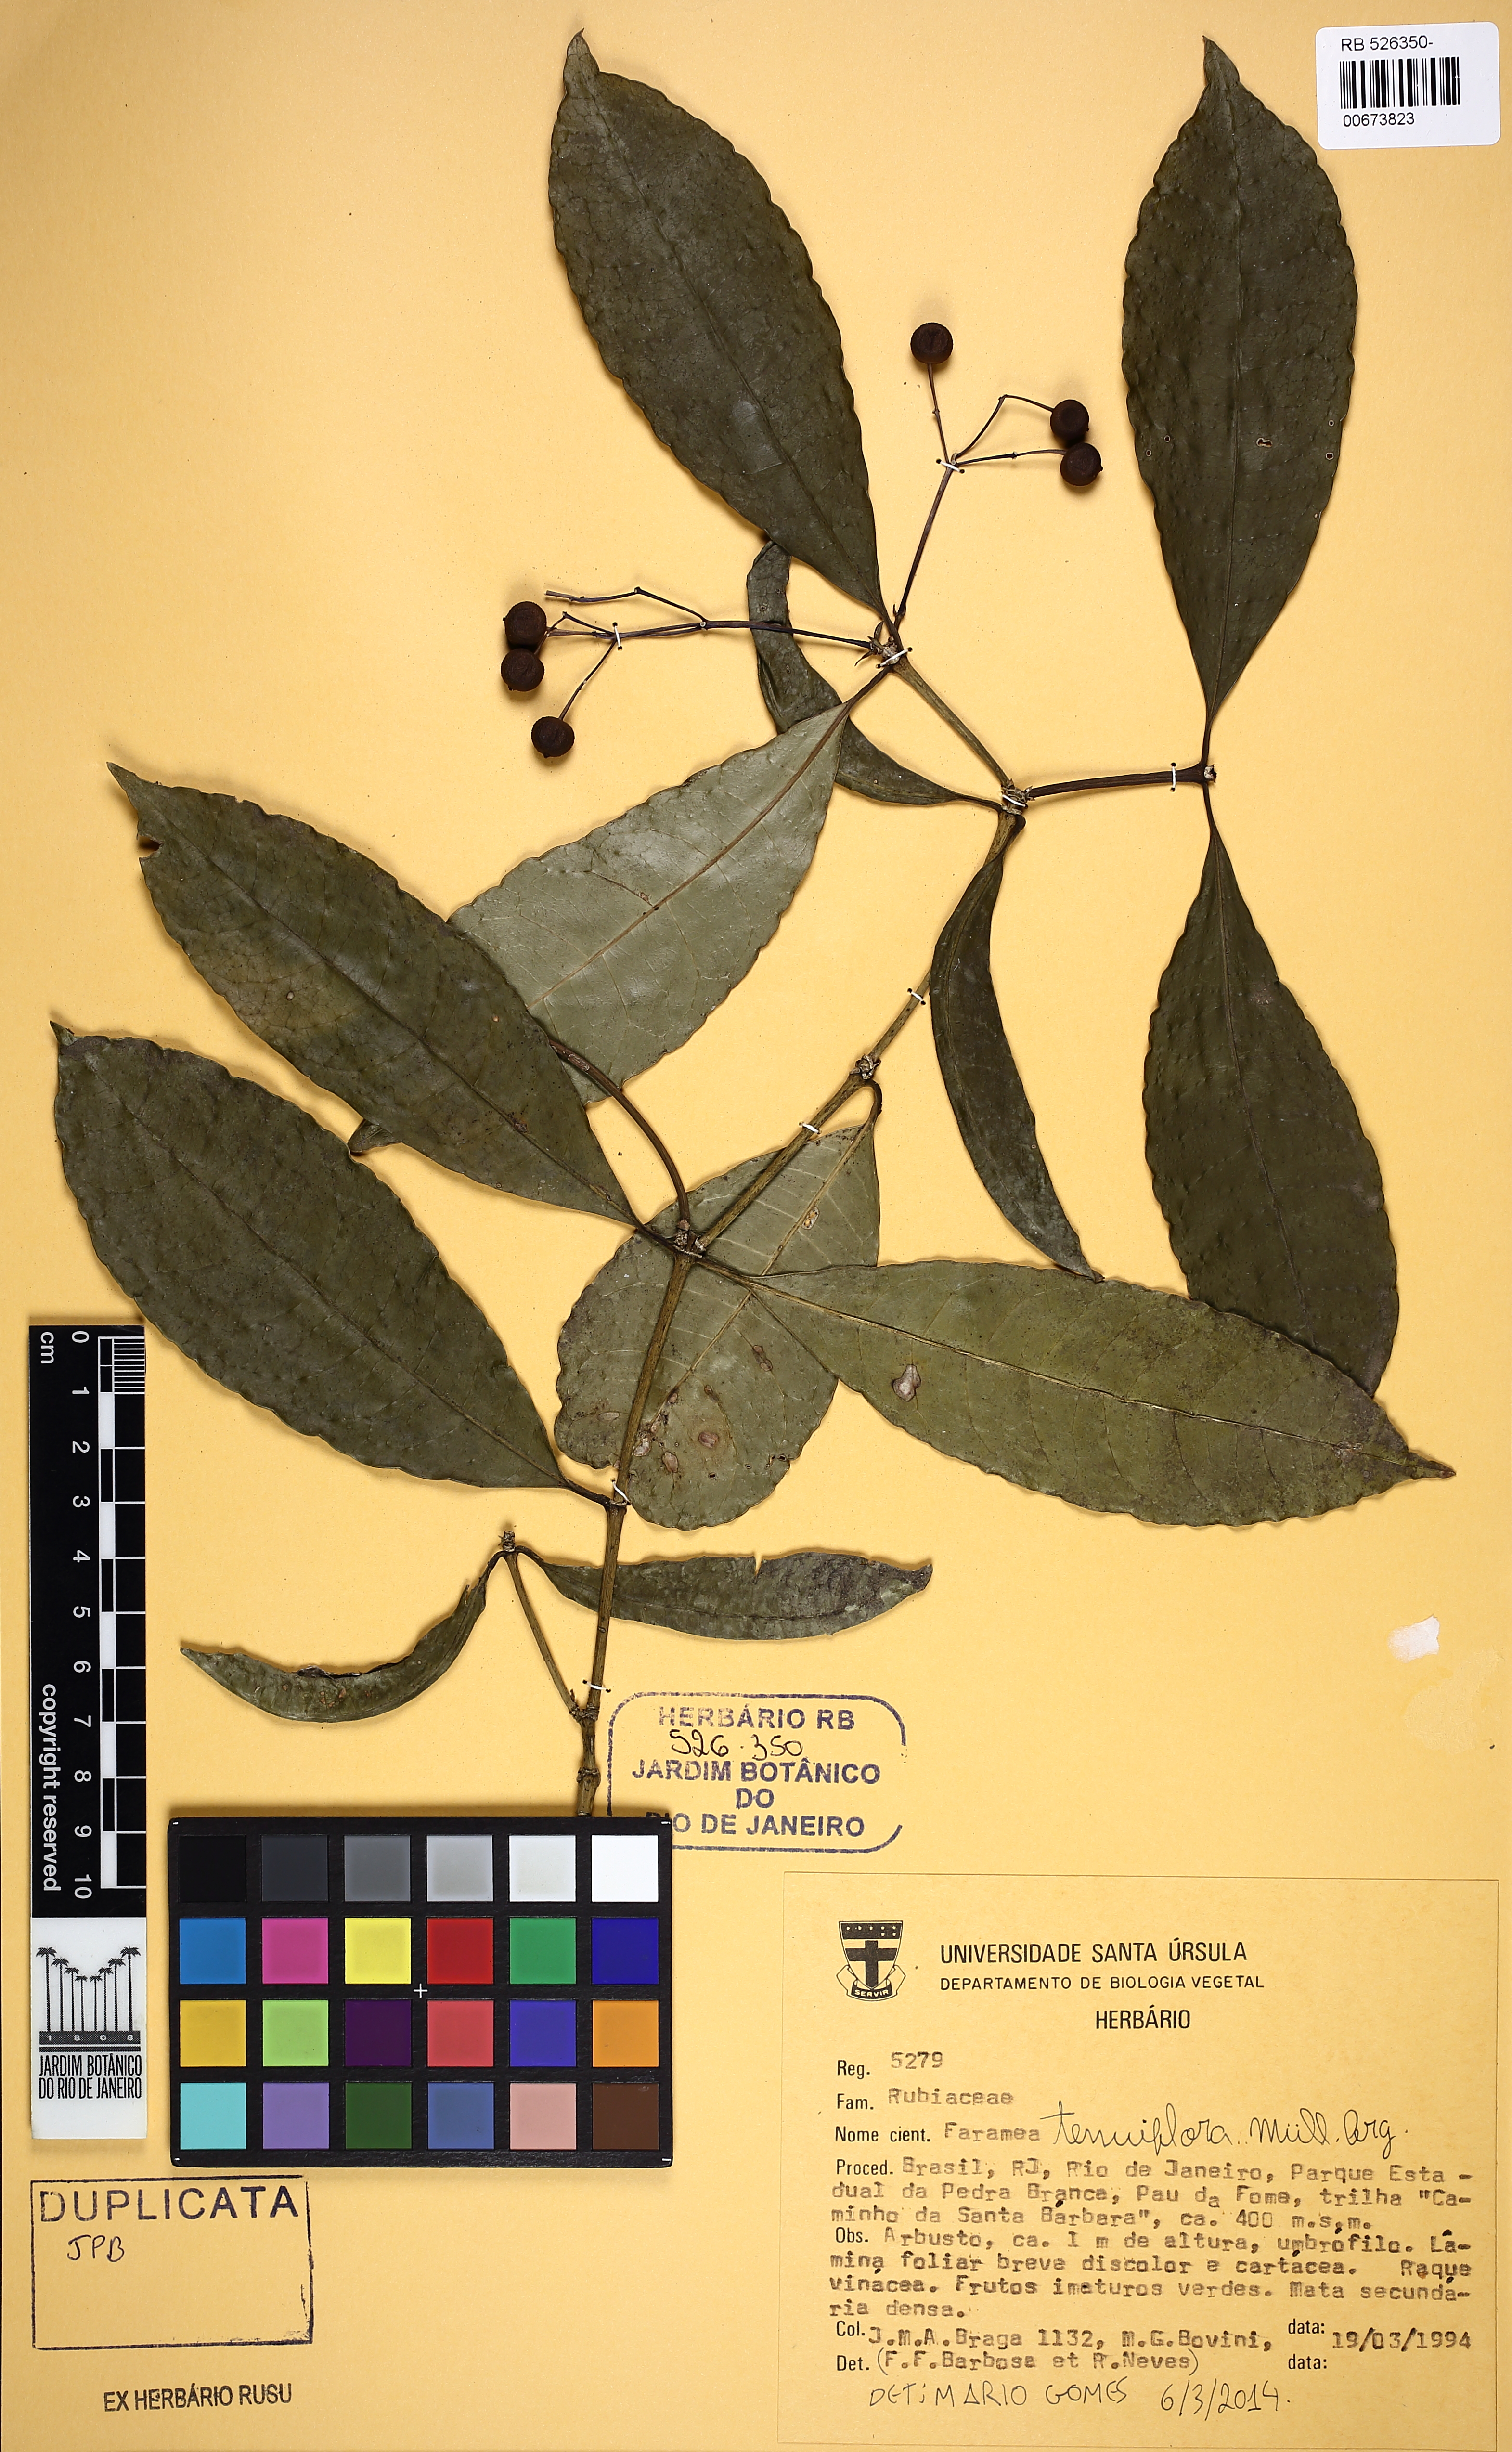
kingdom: Plantae
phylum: Tracheophyta
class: Magnoliopsida
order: Gentianales
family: Rubiaceae
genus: Faramea
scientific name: Faramea tenuiflora
